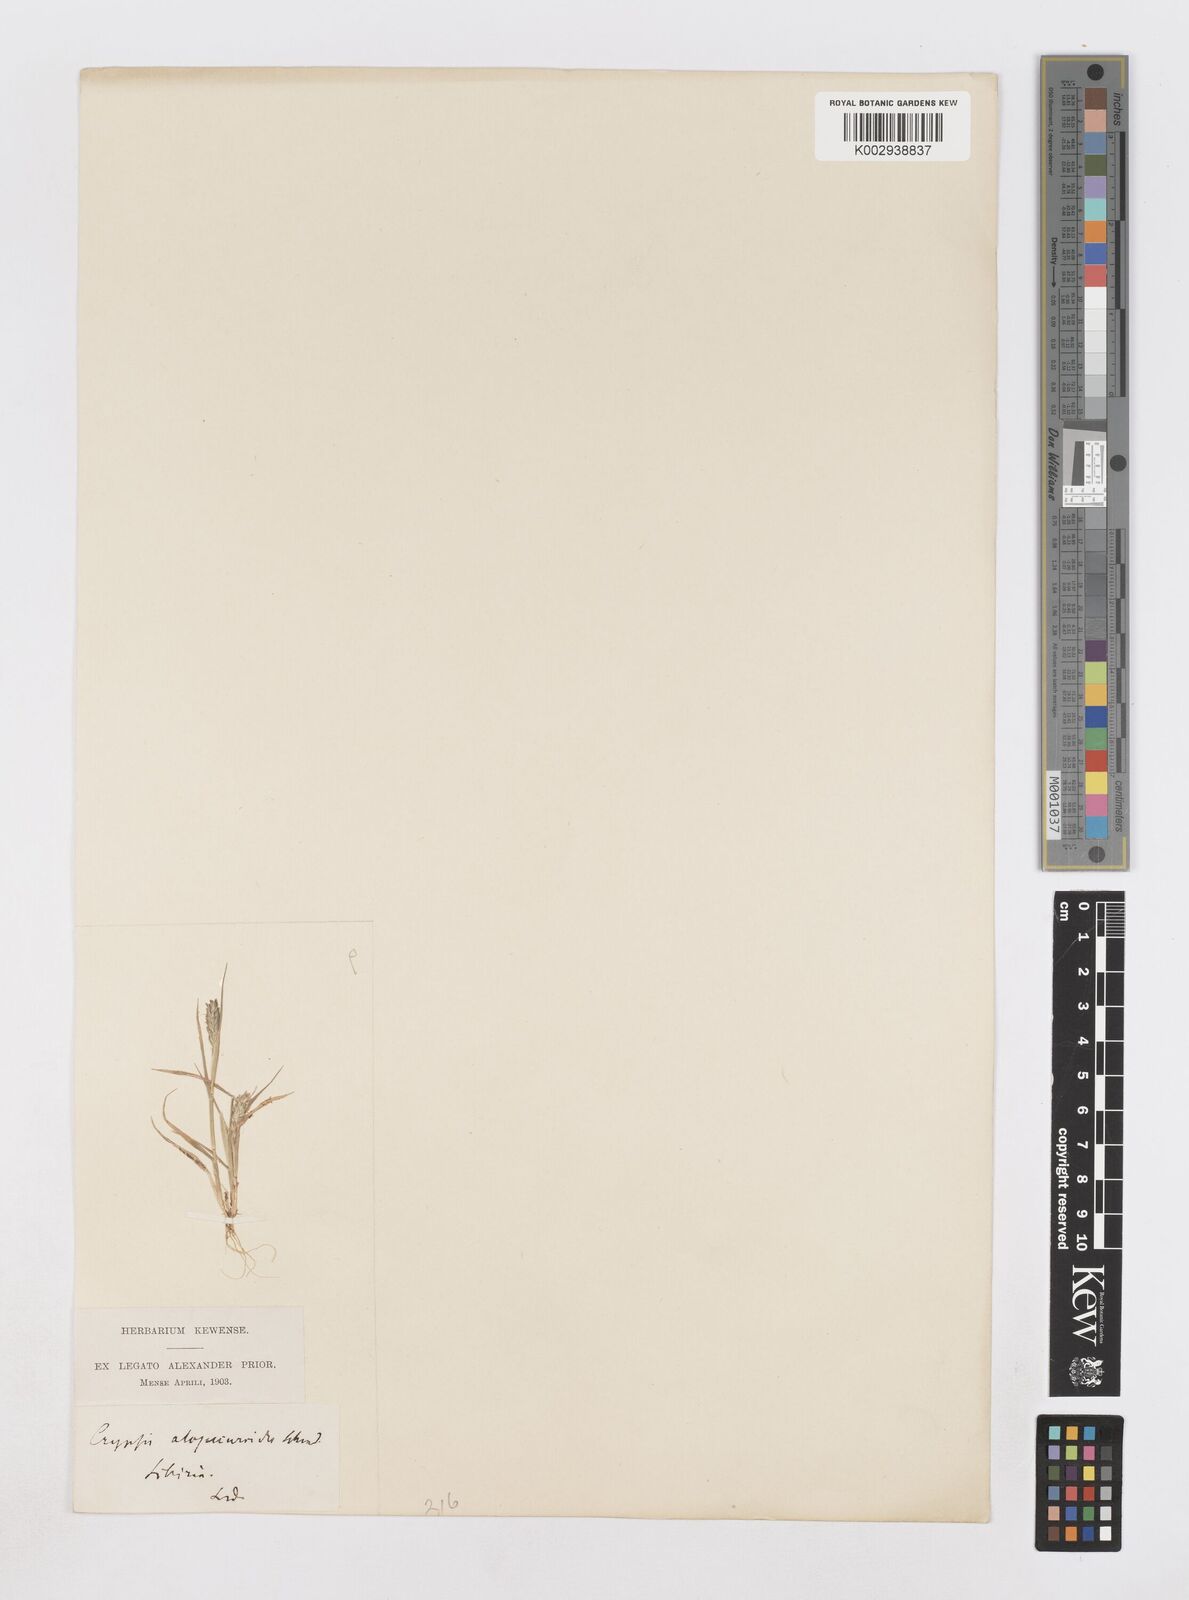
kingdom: Plantae
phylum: Tracheophyta
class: Liliopsida
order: Poales
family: Poaceae
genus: Sporobolus
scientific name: Sporobolus alopecuroides
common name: Foxtail pricklegrass
